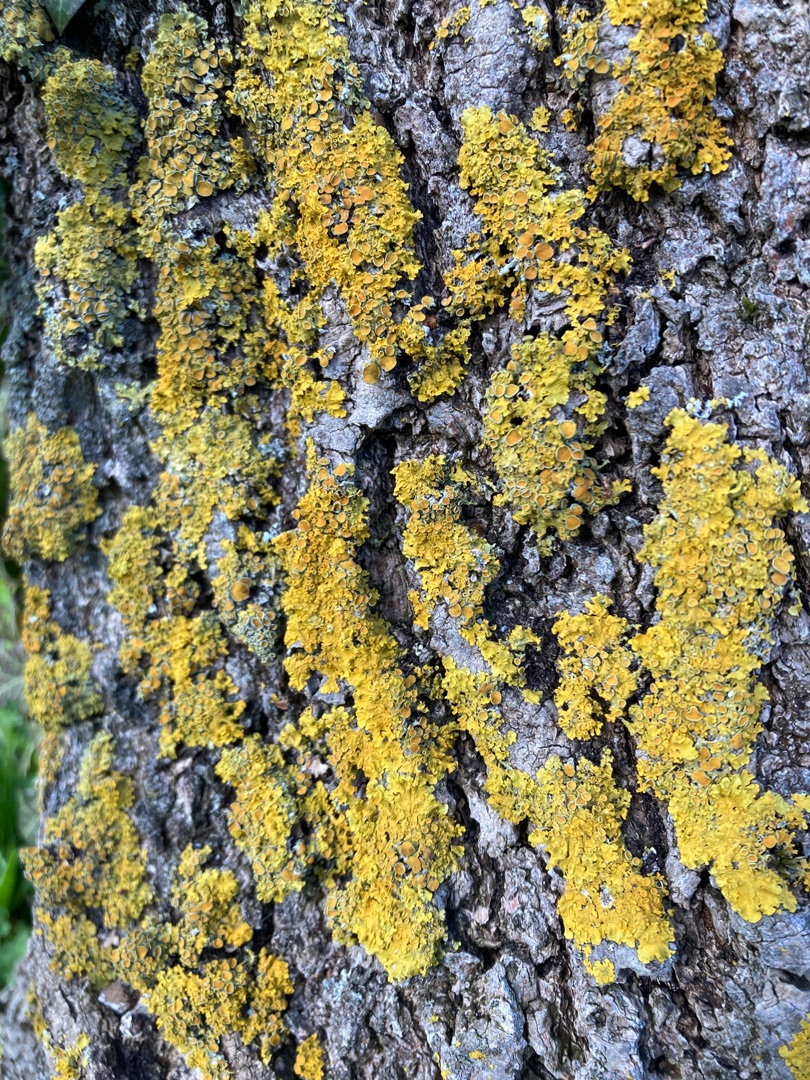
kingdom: Fungi
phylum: Ascomycota
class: Lecanoromycetes
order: Teloschistales
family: Teloschistaceae
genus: Xanthoria
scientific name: Xanthoria parietina
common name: Almindelig væggelav
